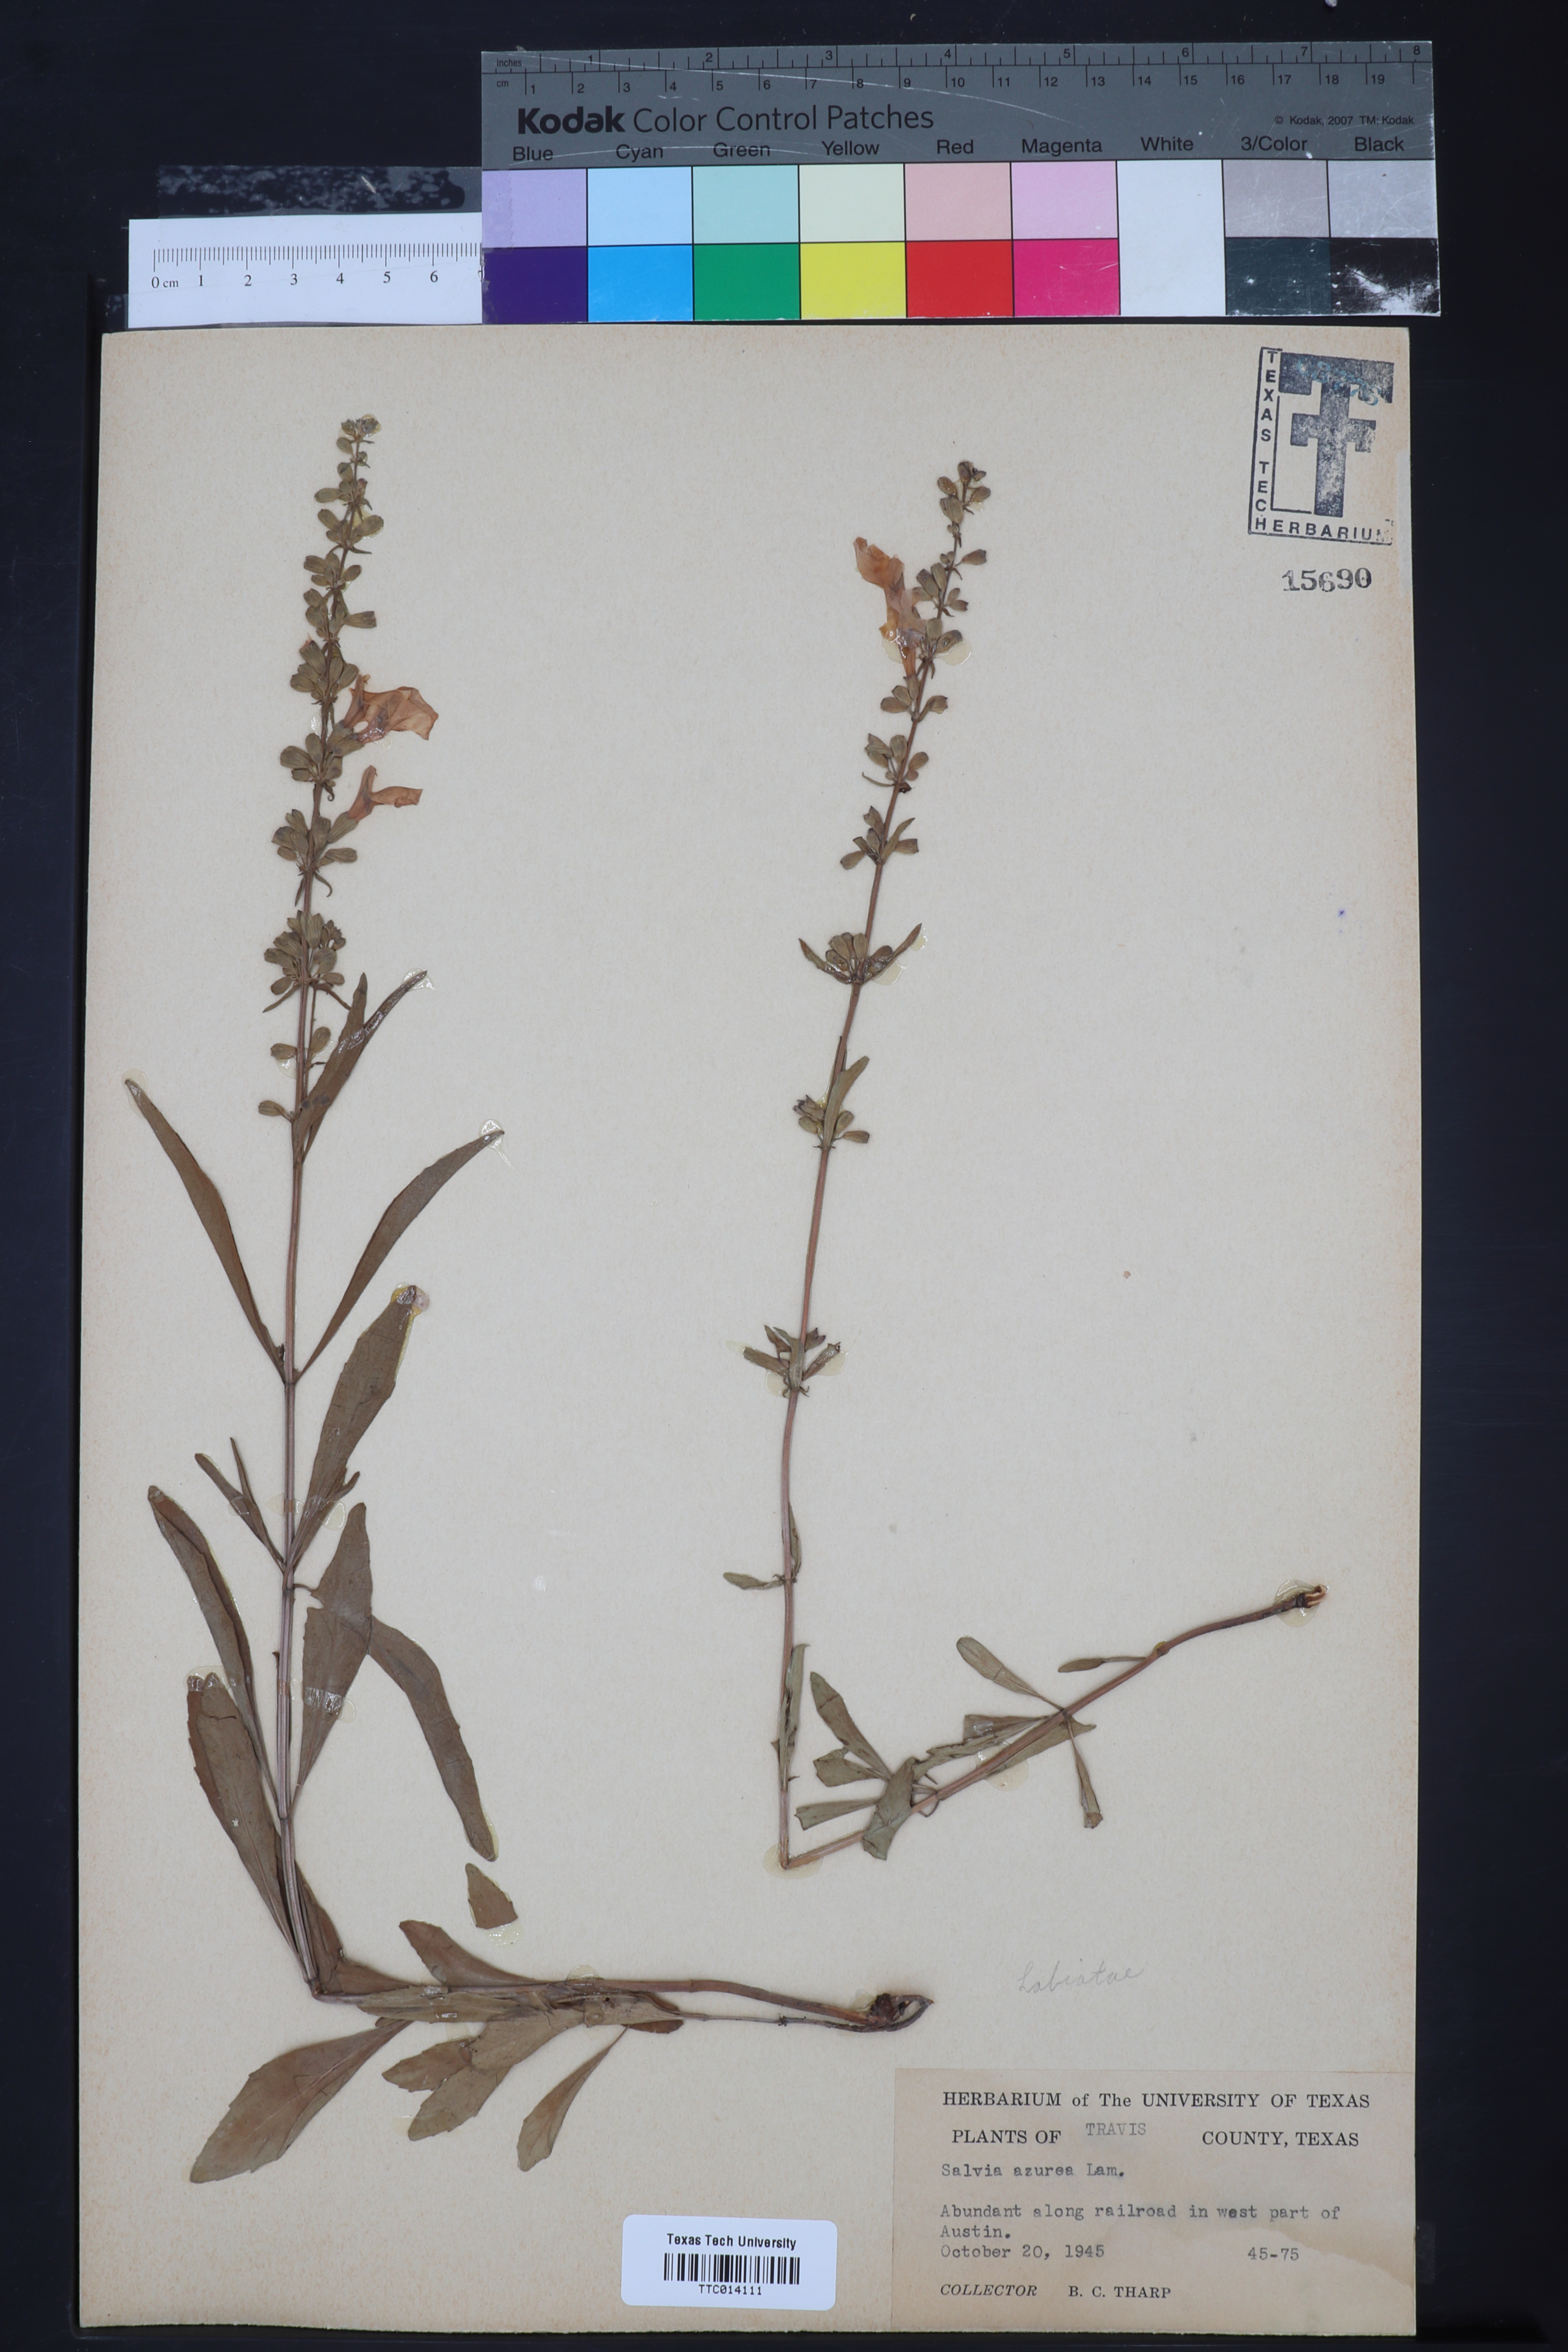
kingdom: Plantae
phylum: Tracheophyta
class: Magnoliopsida
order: Lamiales
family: Lamiaceae
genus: Salvia
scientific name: Salvia azurea
